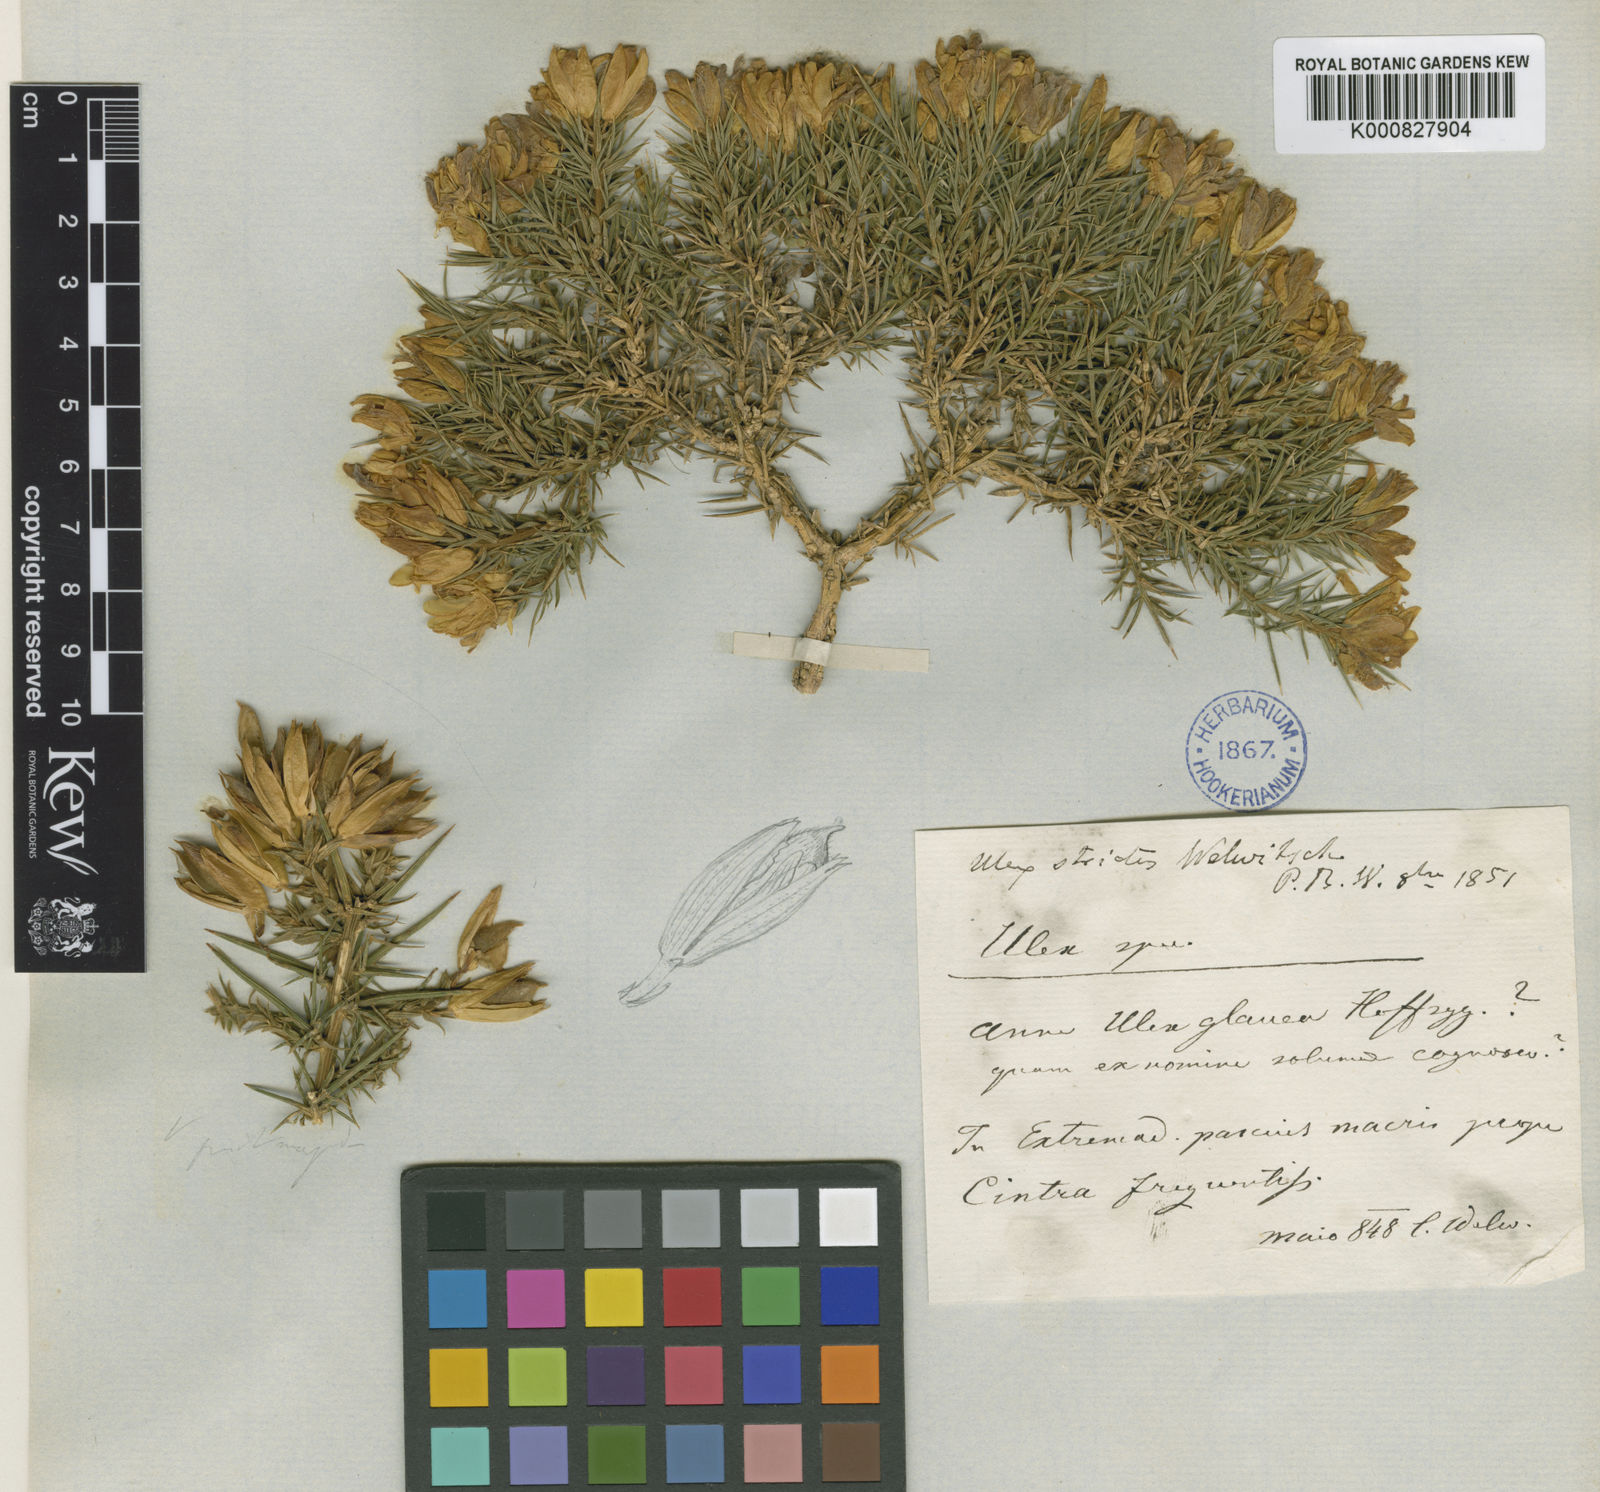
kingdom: Plantae
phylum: Tracheophyta
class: Magnoliopsida
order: Fabales
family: Fabaceae
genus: Ulex
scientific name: Ulex densus
